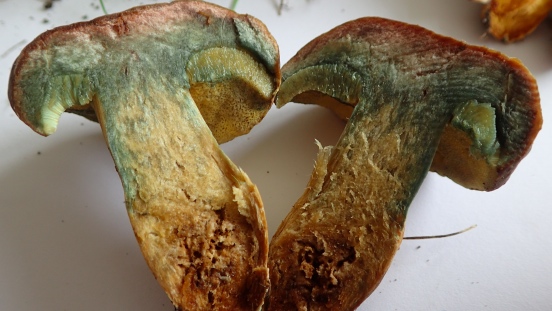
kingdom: Fungi
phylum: Basidiomycota
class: Agaricomycetes
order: Boletales
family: Boletaceae
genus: Xerocomellus
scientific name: Xerocomellus pruinatus
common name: dugget rørhat
